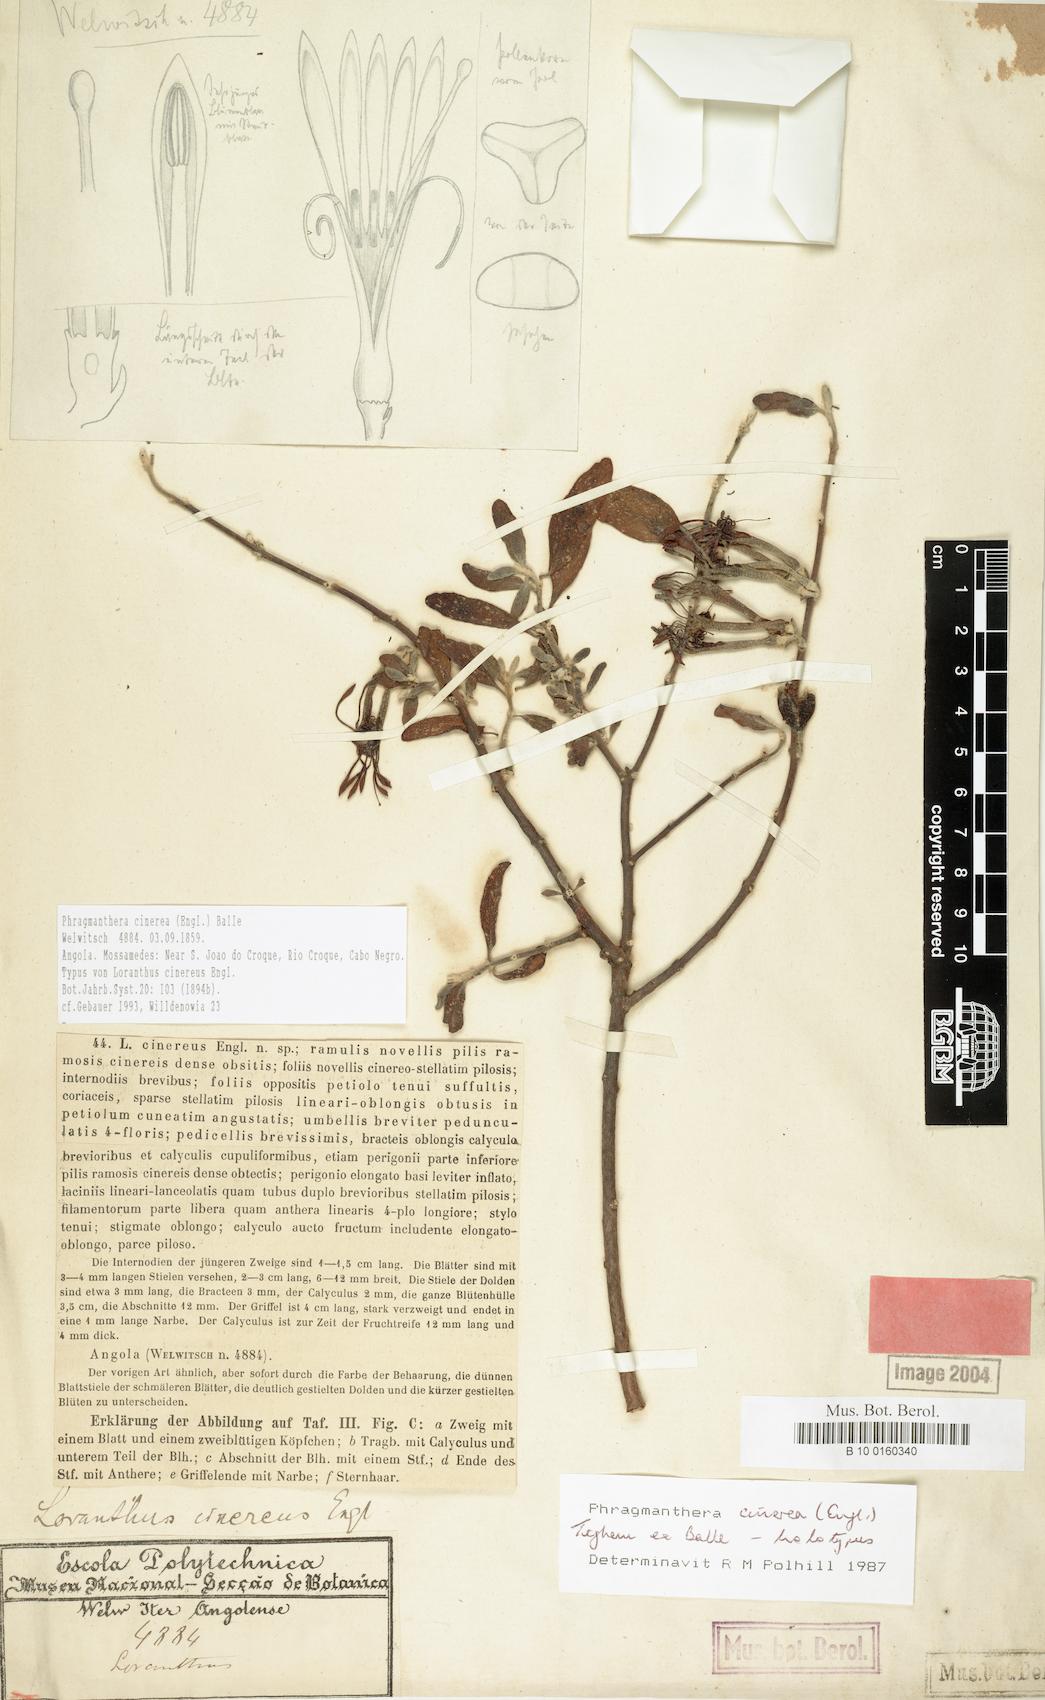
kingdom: Plantae
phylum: Tracheophyta
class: Magnoliopsida
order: Santalales
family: Loranthaceae
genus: Phragmanthera
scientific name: Phragmanthera cinerea
